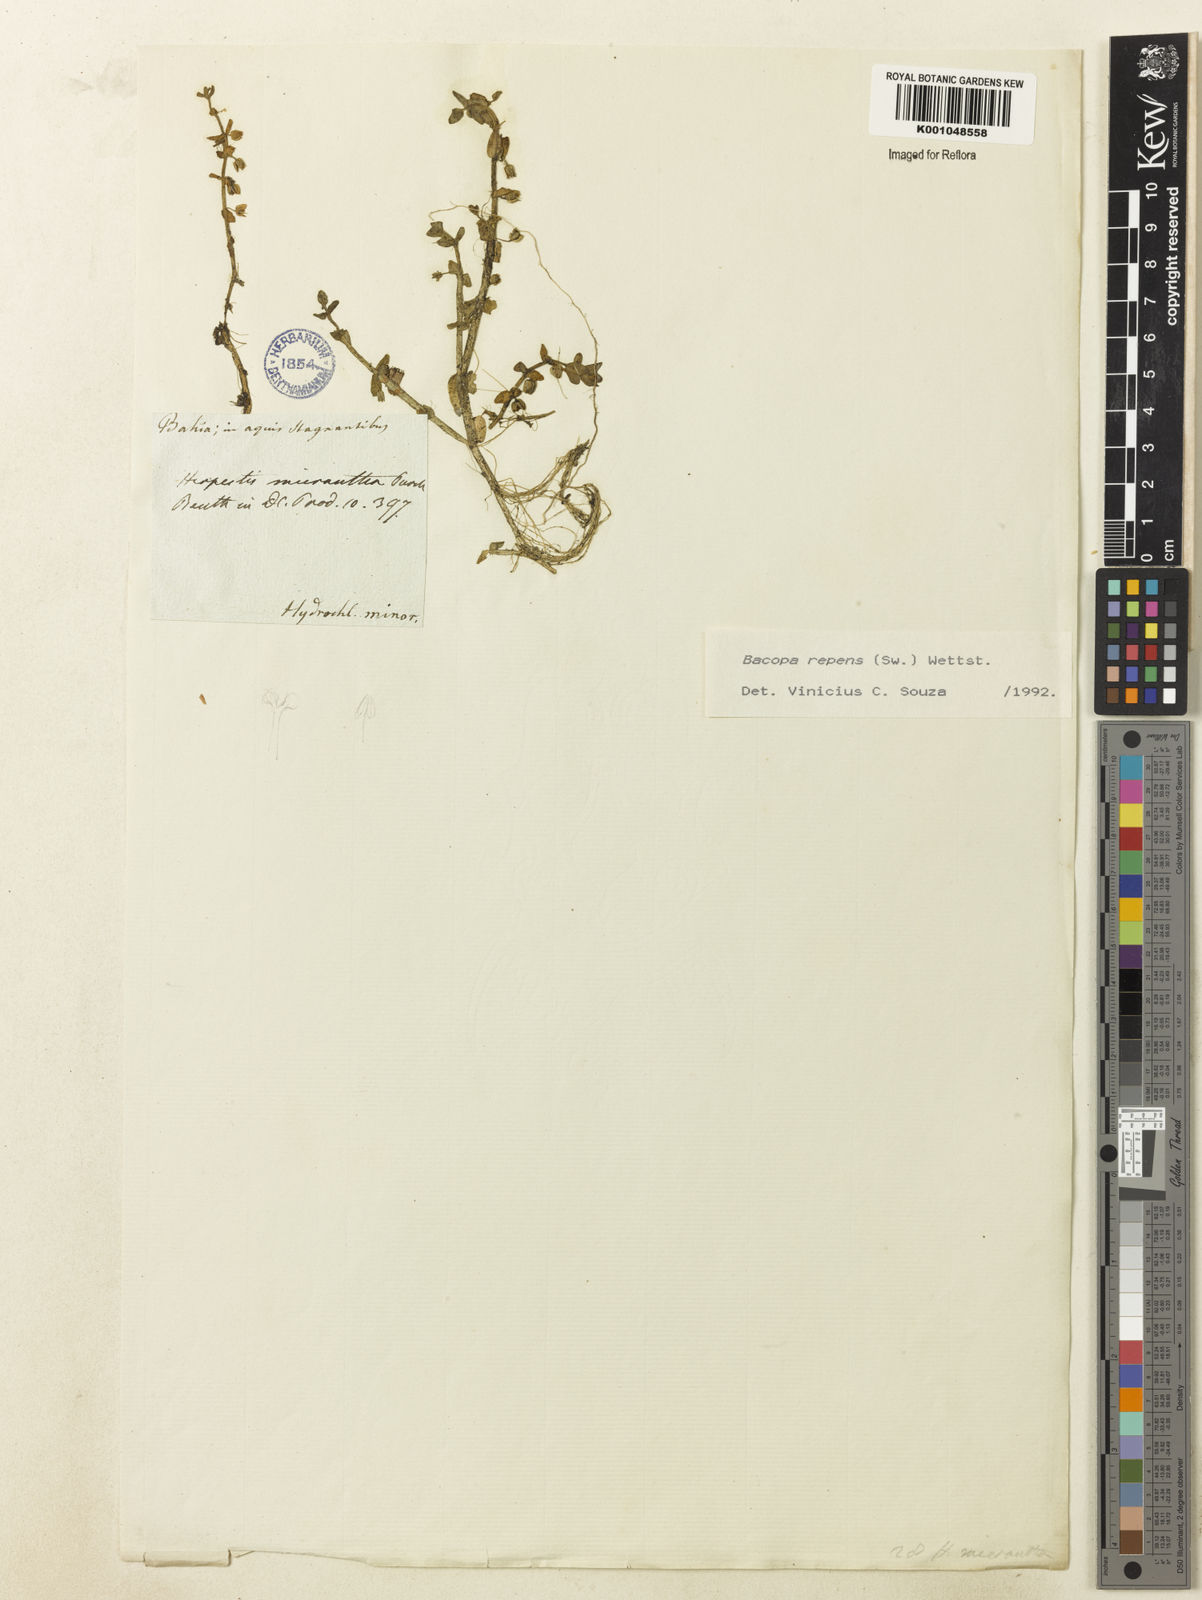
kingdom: Plantae
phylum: Tracheophyta
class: Magnoliopsida
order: Lamiales
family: Plantaginaceae
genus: Bacopa
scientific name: Bacopa repens
